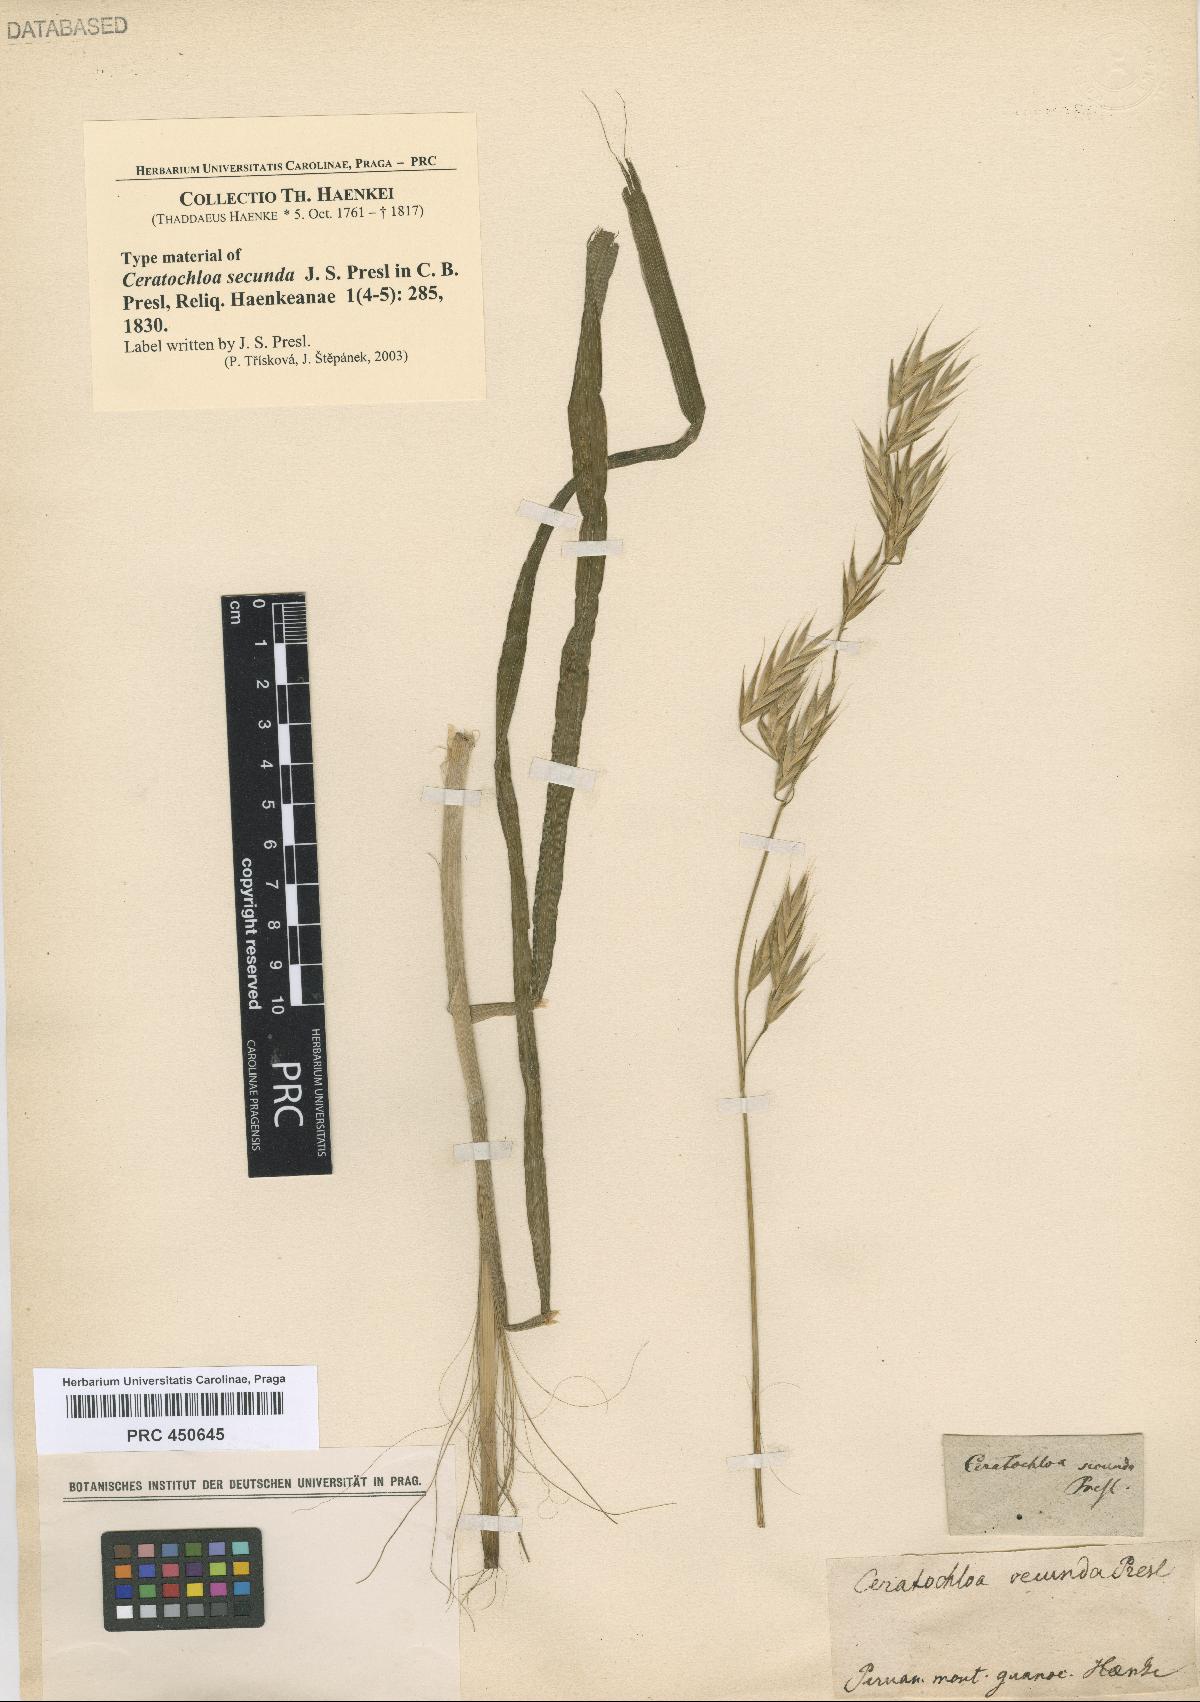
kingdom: Plantae
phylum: Tracheophyta
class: Liliopsida
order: Poales
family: Poaceae
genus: Bromus
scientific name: Bromus catharticus
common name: Rescuegrass
